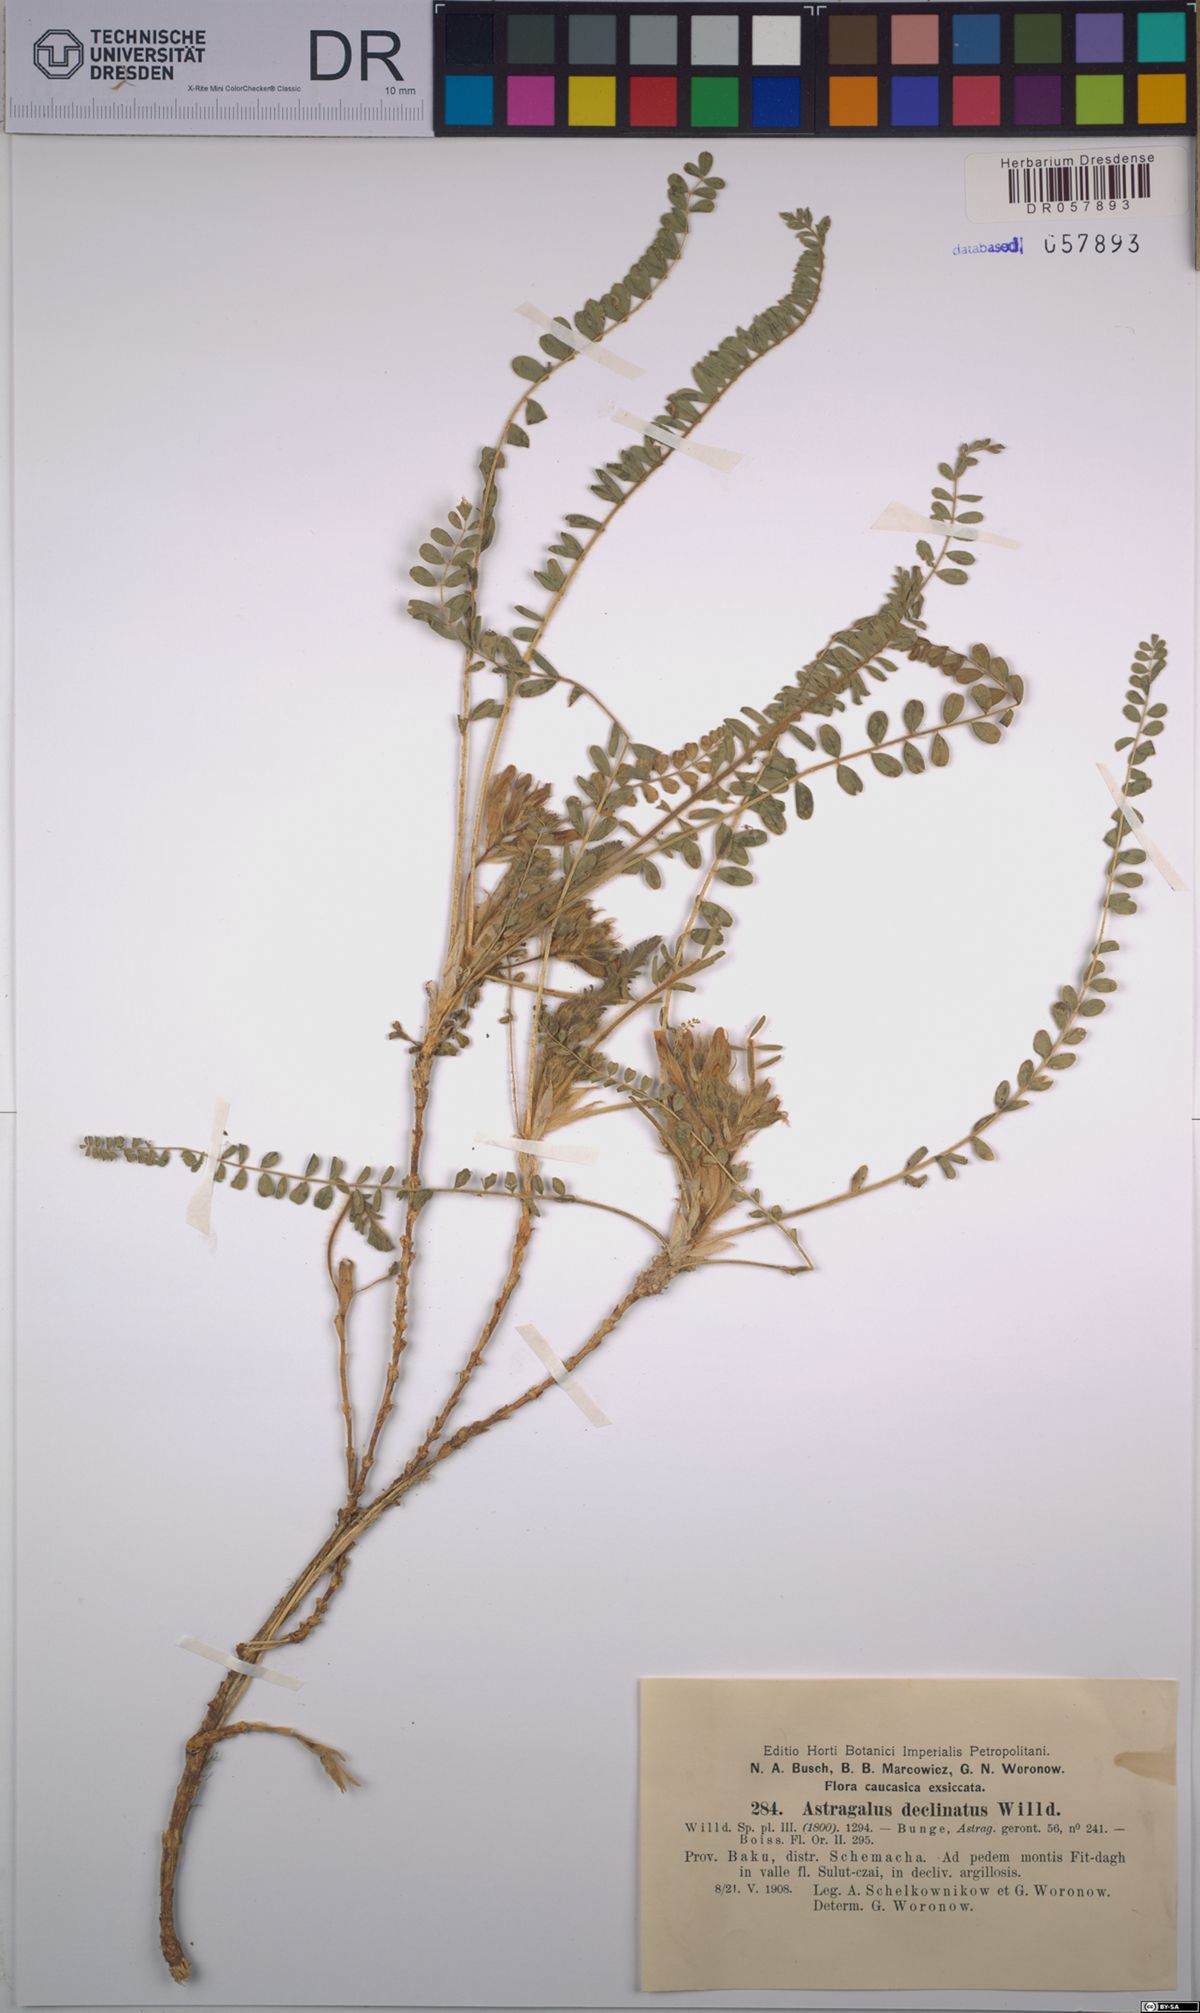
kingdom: Plantae
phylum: Tracheophyta
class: Magnoliopsida
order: Fabales
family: Fabaceae
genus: Astragalus
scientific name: Astragalus pinetorum
